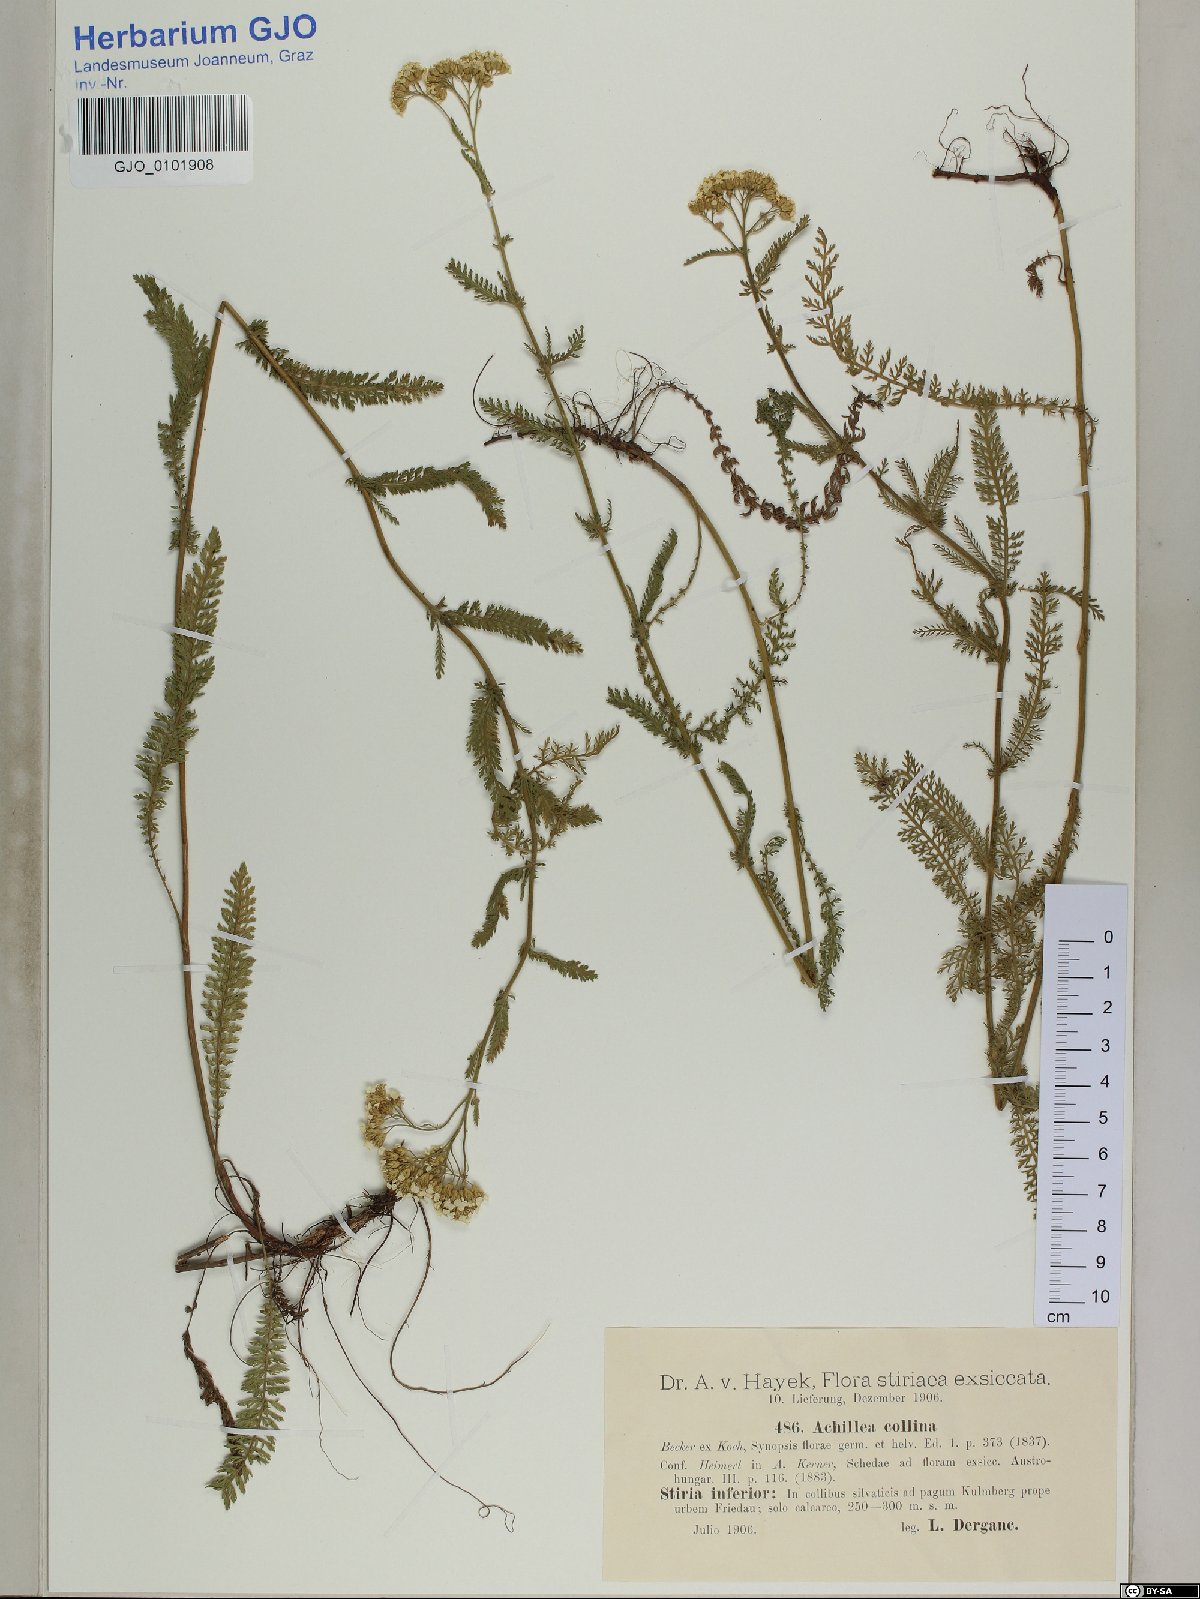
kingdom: Plantae
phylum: Tracheophyta
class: Magnoliopsida
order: Asterales
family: Asteraceae
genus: Achillea
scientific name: Achillea collina
